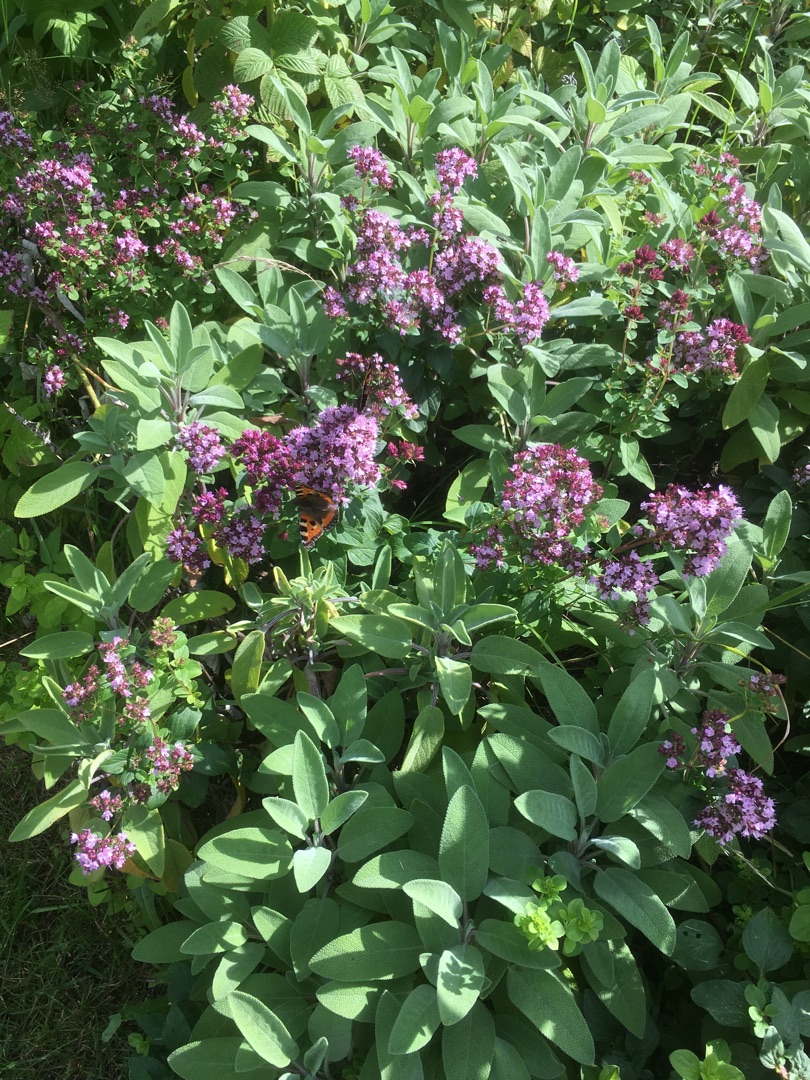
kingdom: Animalia
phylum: Arthropoda
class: Insecta
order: Lepidoptera
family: Nymphalidae
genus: Aglais
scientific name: Aglais urticae
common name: Nældens takvinge
